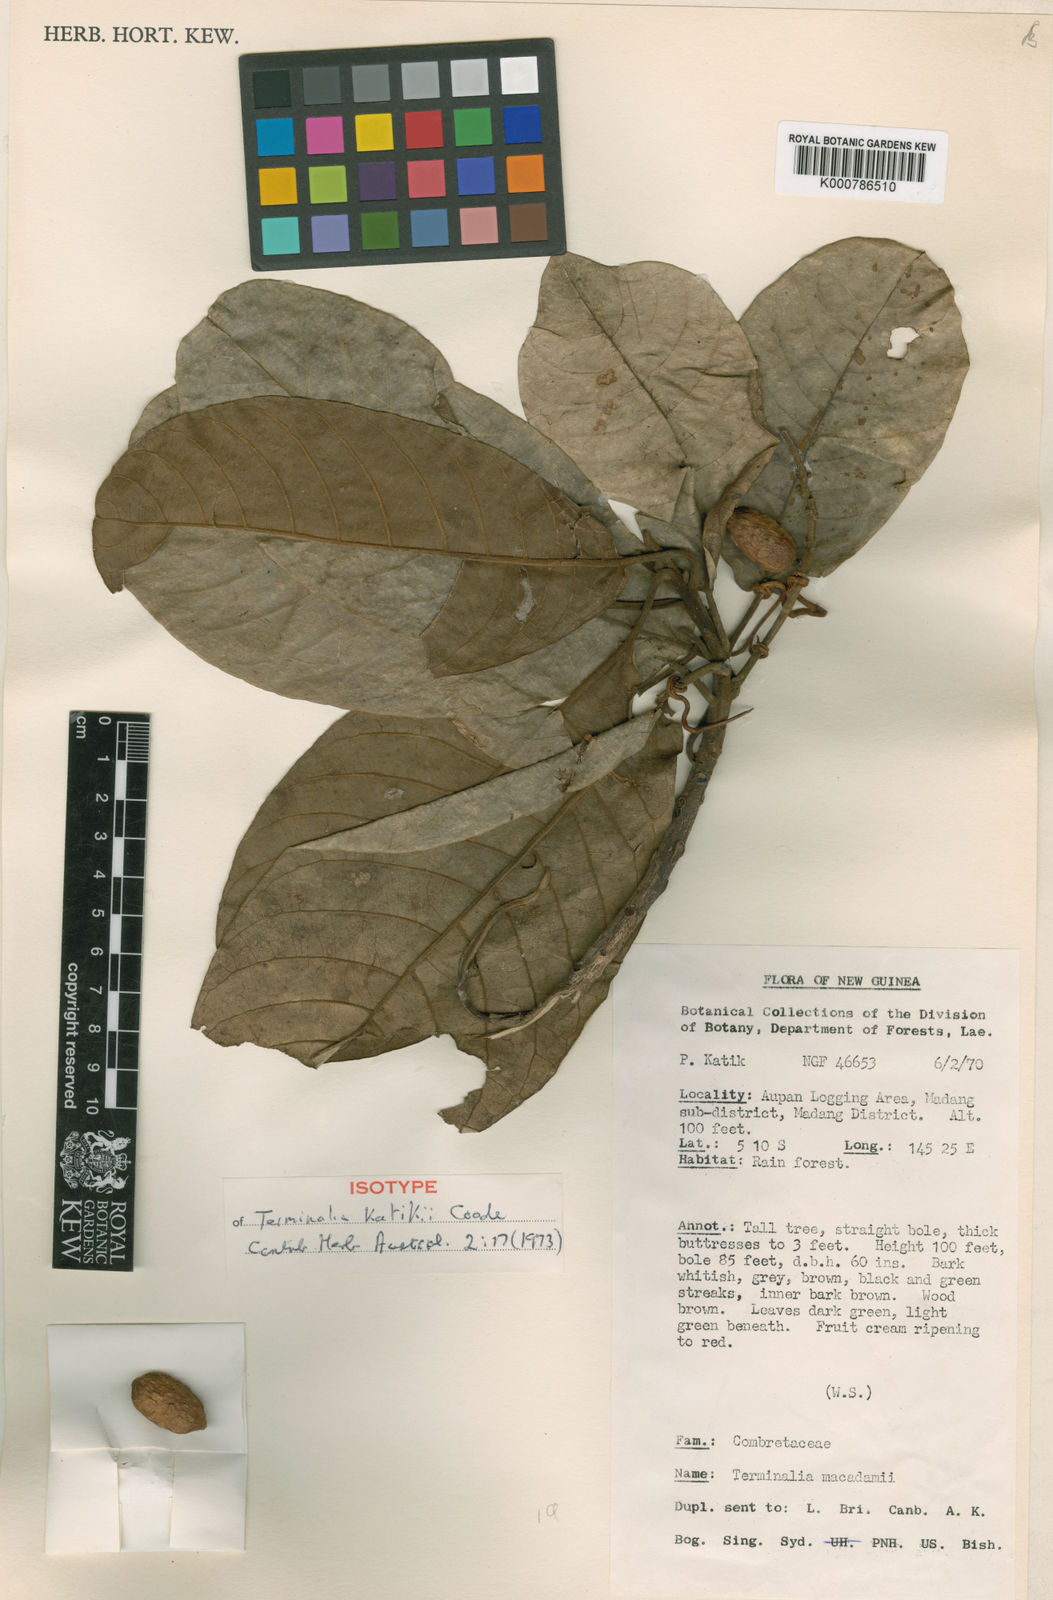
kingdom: Plantae
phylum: Tracheophyta
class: Magnoliopsida
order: Myrtales
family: Combretaceae
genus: Terminalia
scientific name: Terminalia katikii
